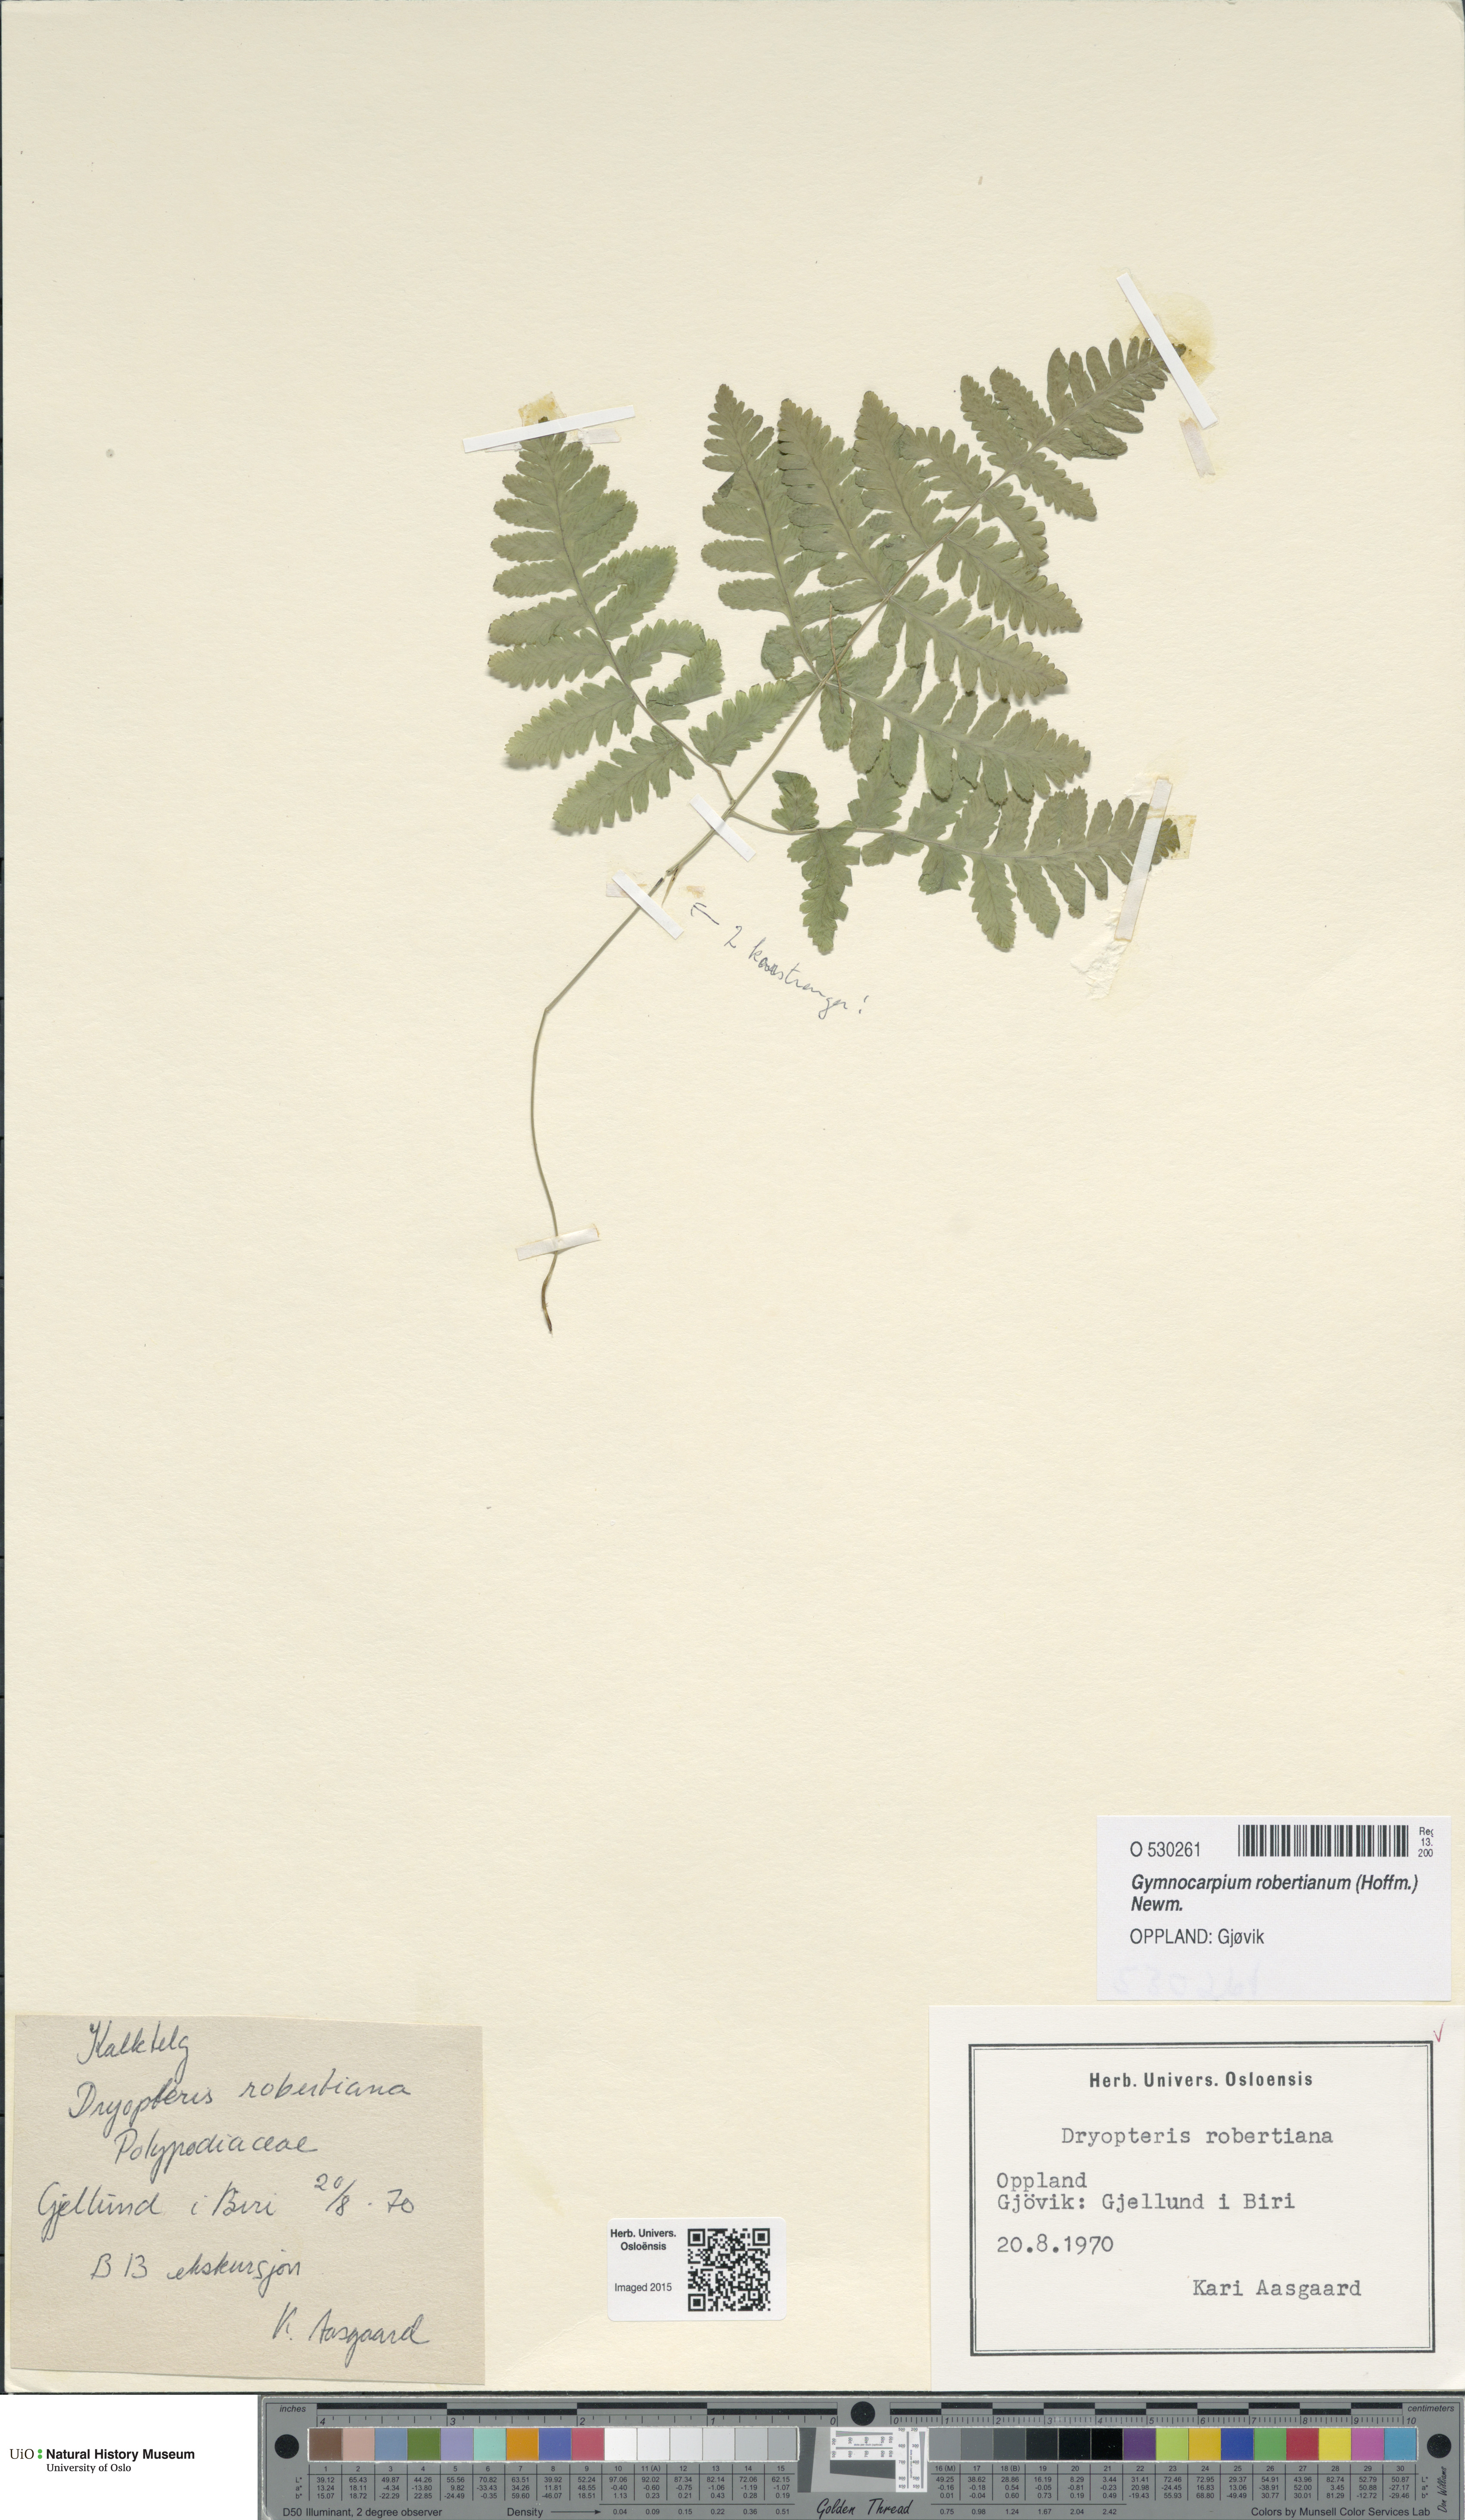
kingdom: Plantae
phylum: Tracheophyta
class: Polypodiopsida
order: Polypodiales
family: Cystopteridaceae
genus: Gymnocarpium
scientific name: Gymnocarpium robertianum
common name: Limestone fern
